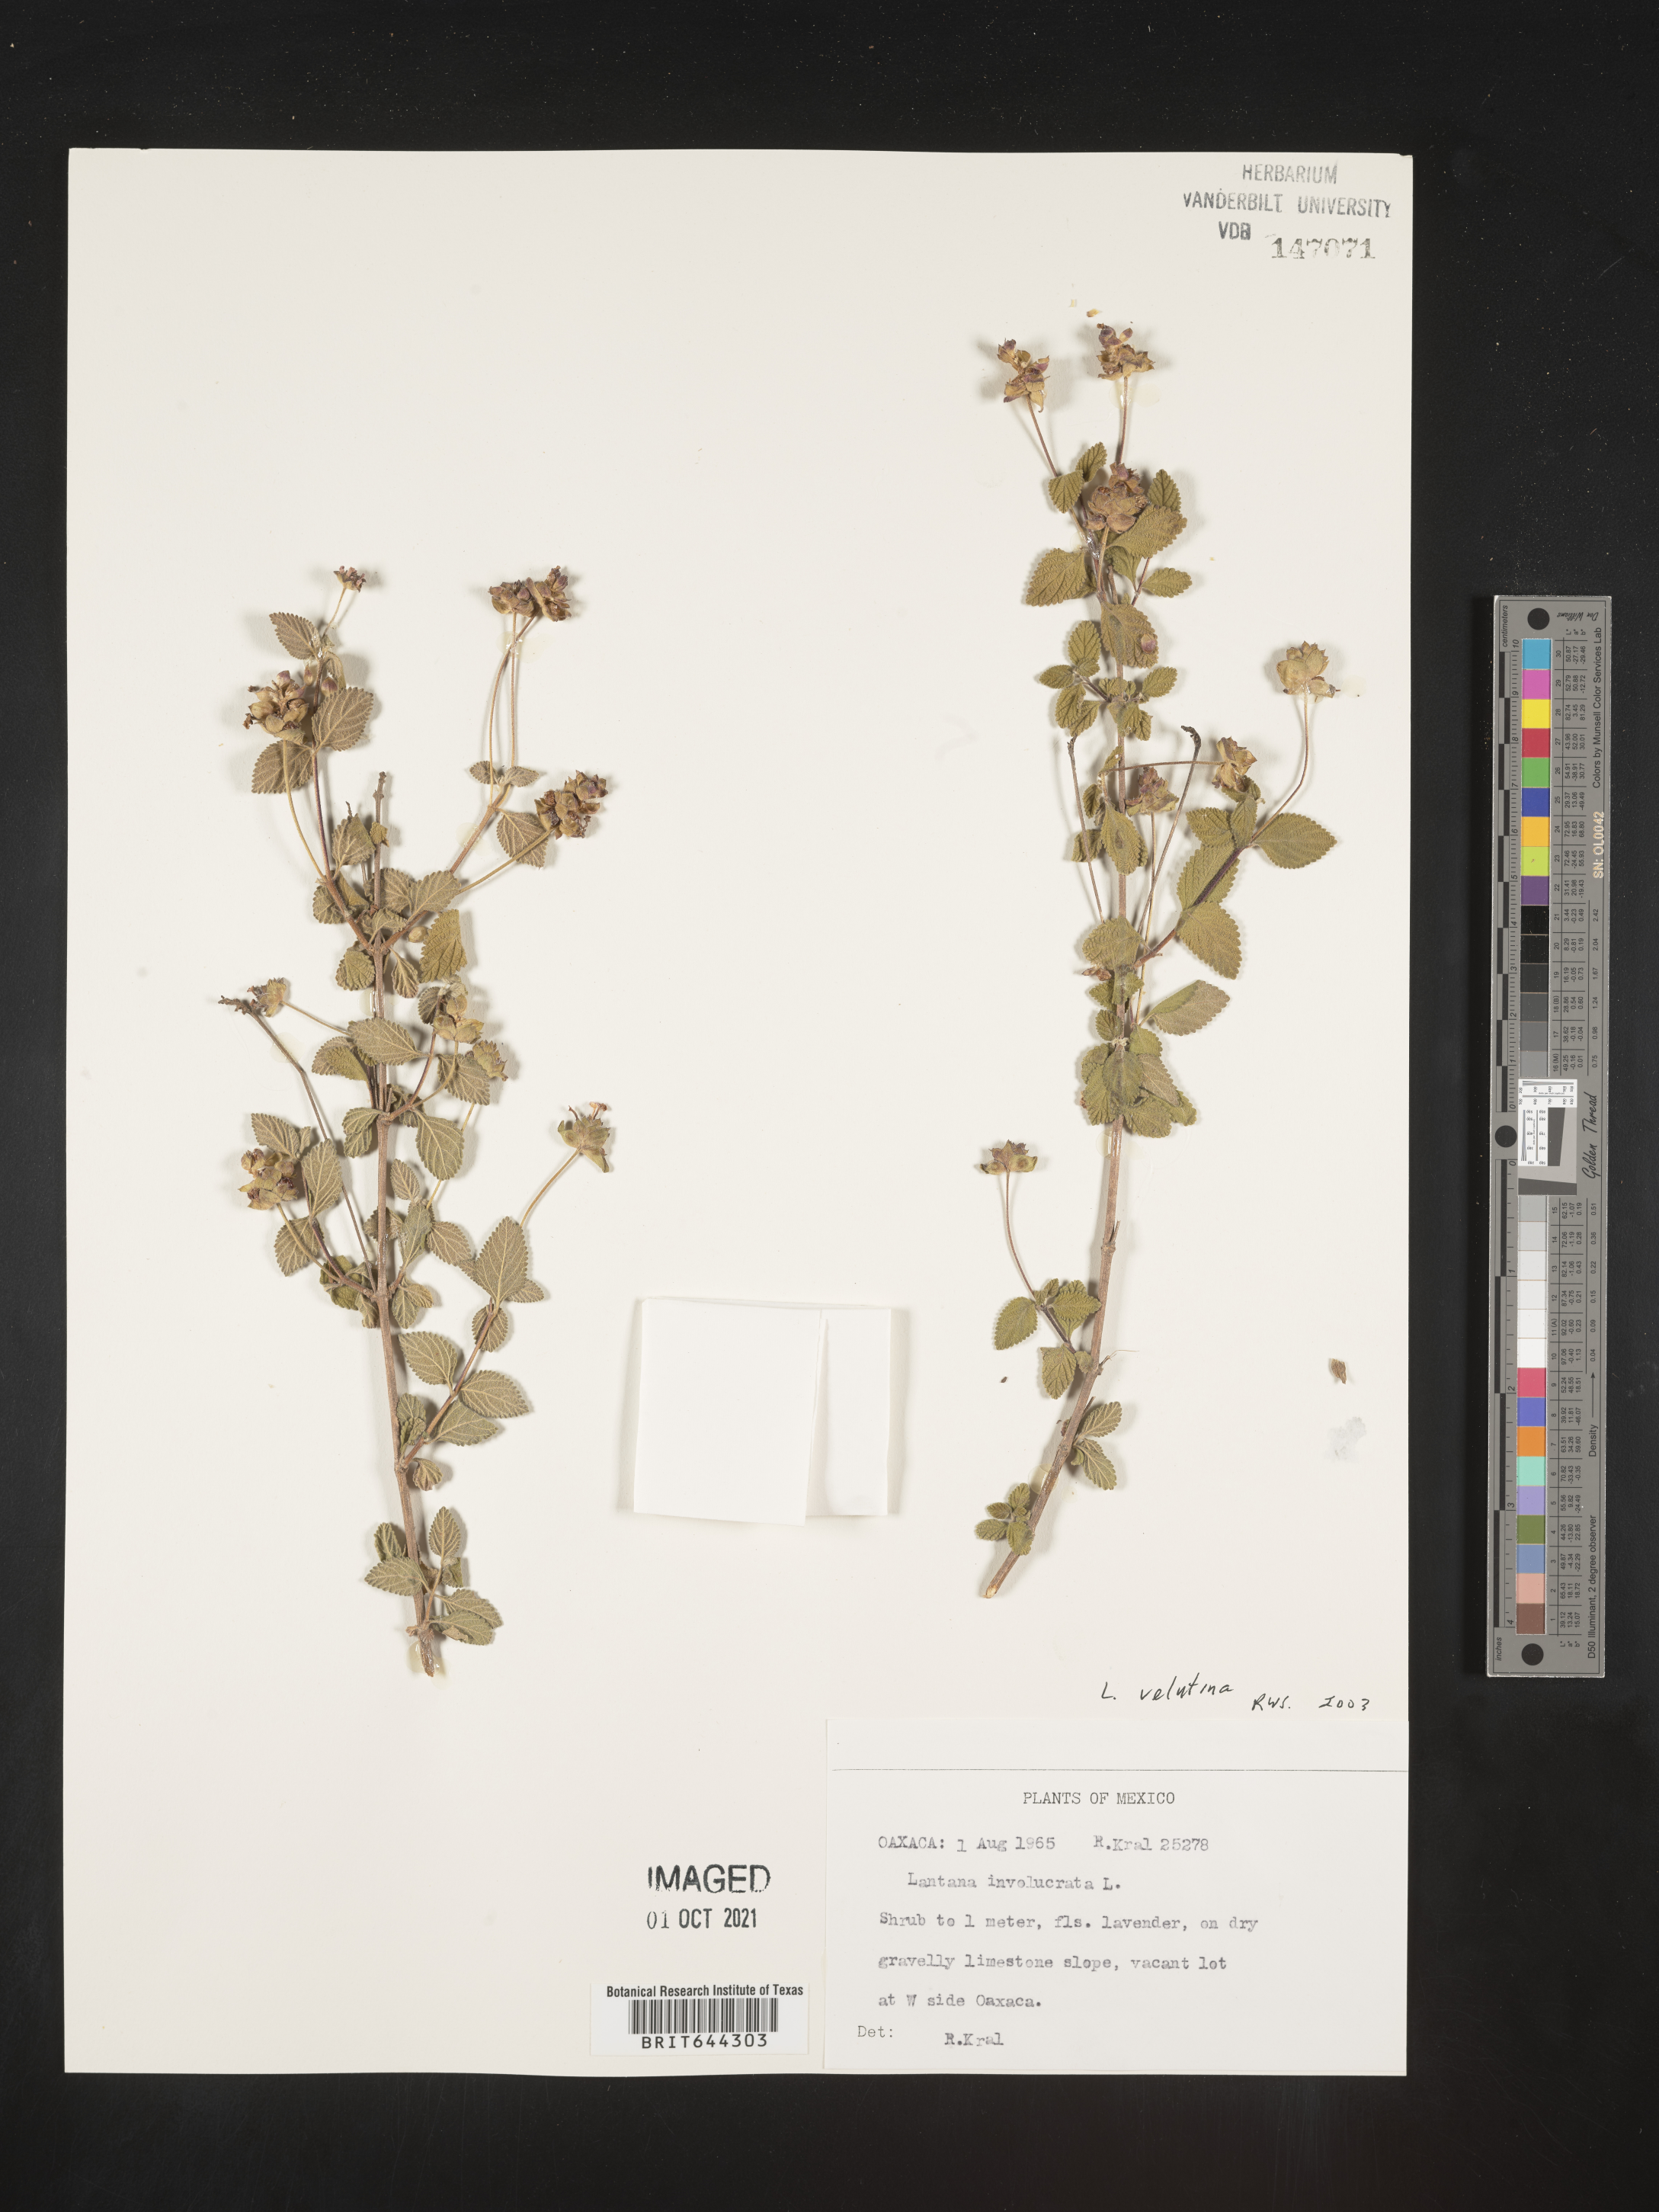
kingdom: Plantae
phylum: Tracheophyta
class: Magnoliopsida
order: Lamiales
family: Verbenaceae
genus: Lantana
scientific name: Lantana
